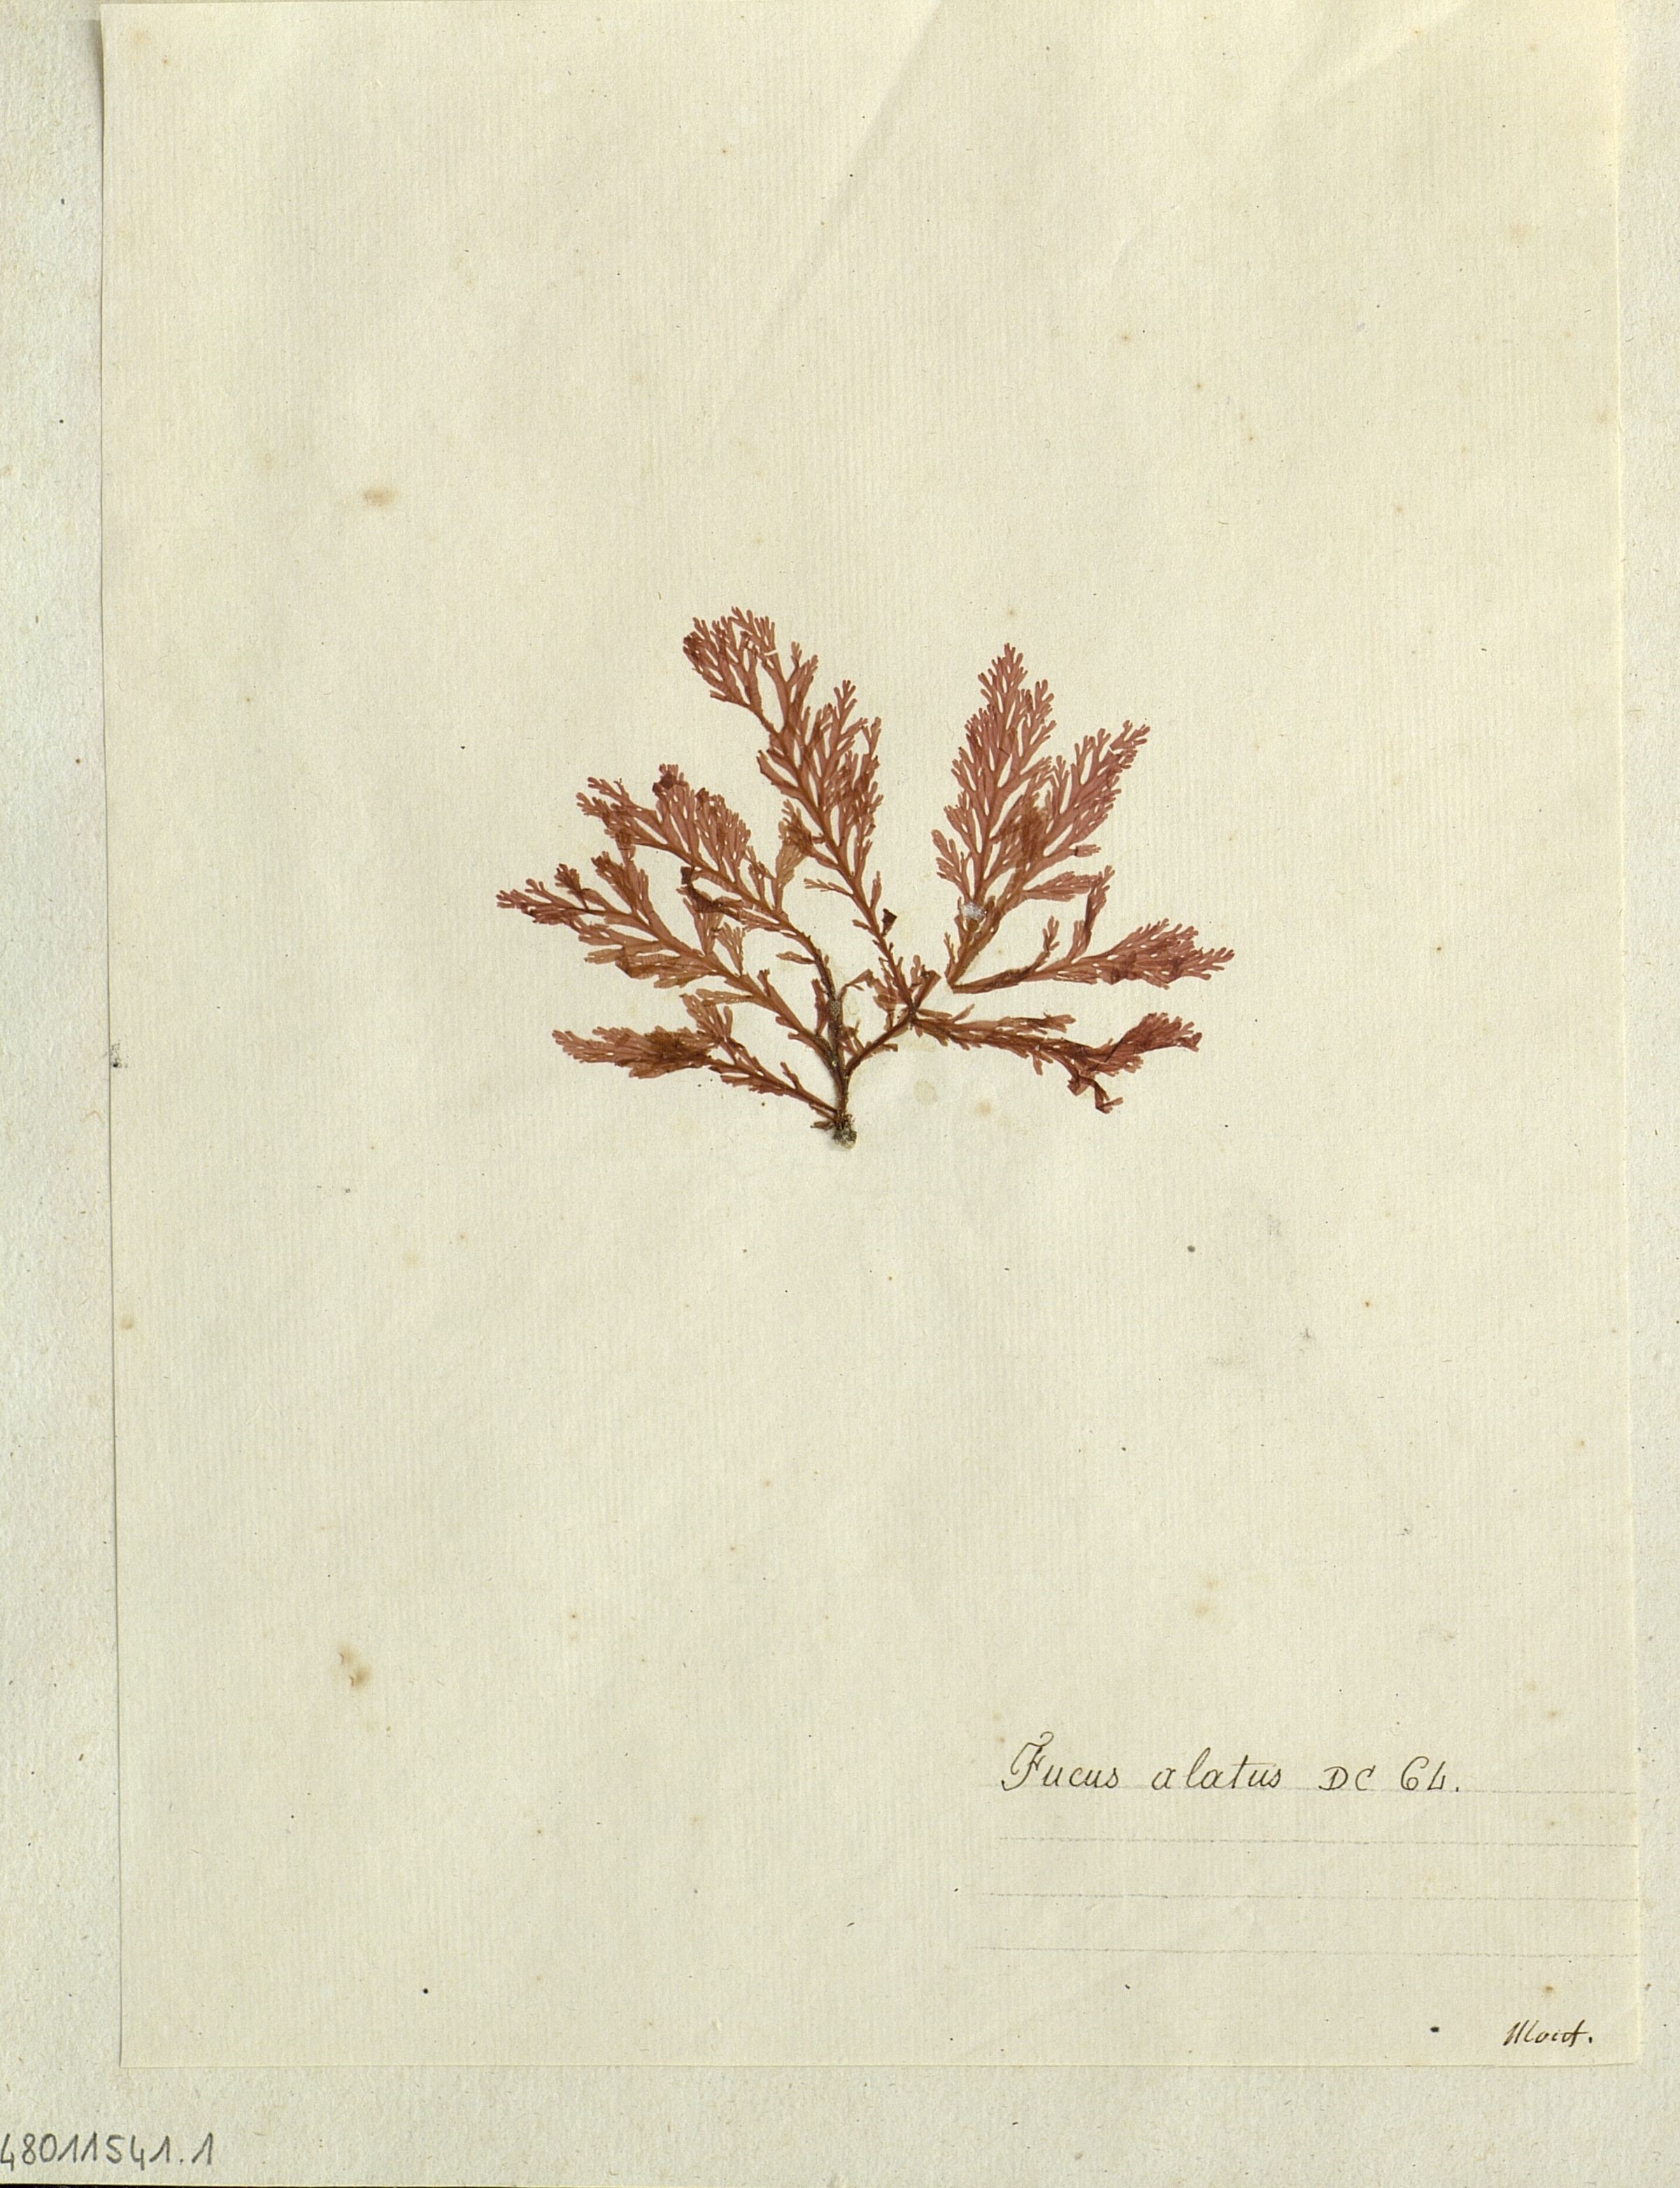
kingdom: Chromista
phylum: Ochrophyta
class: Phaeophyceae
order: Fucales
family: Fucaceae
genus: Fucus
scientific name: Fucus
